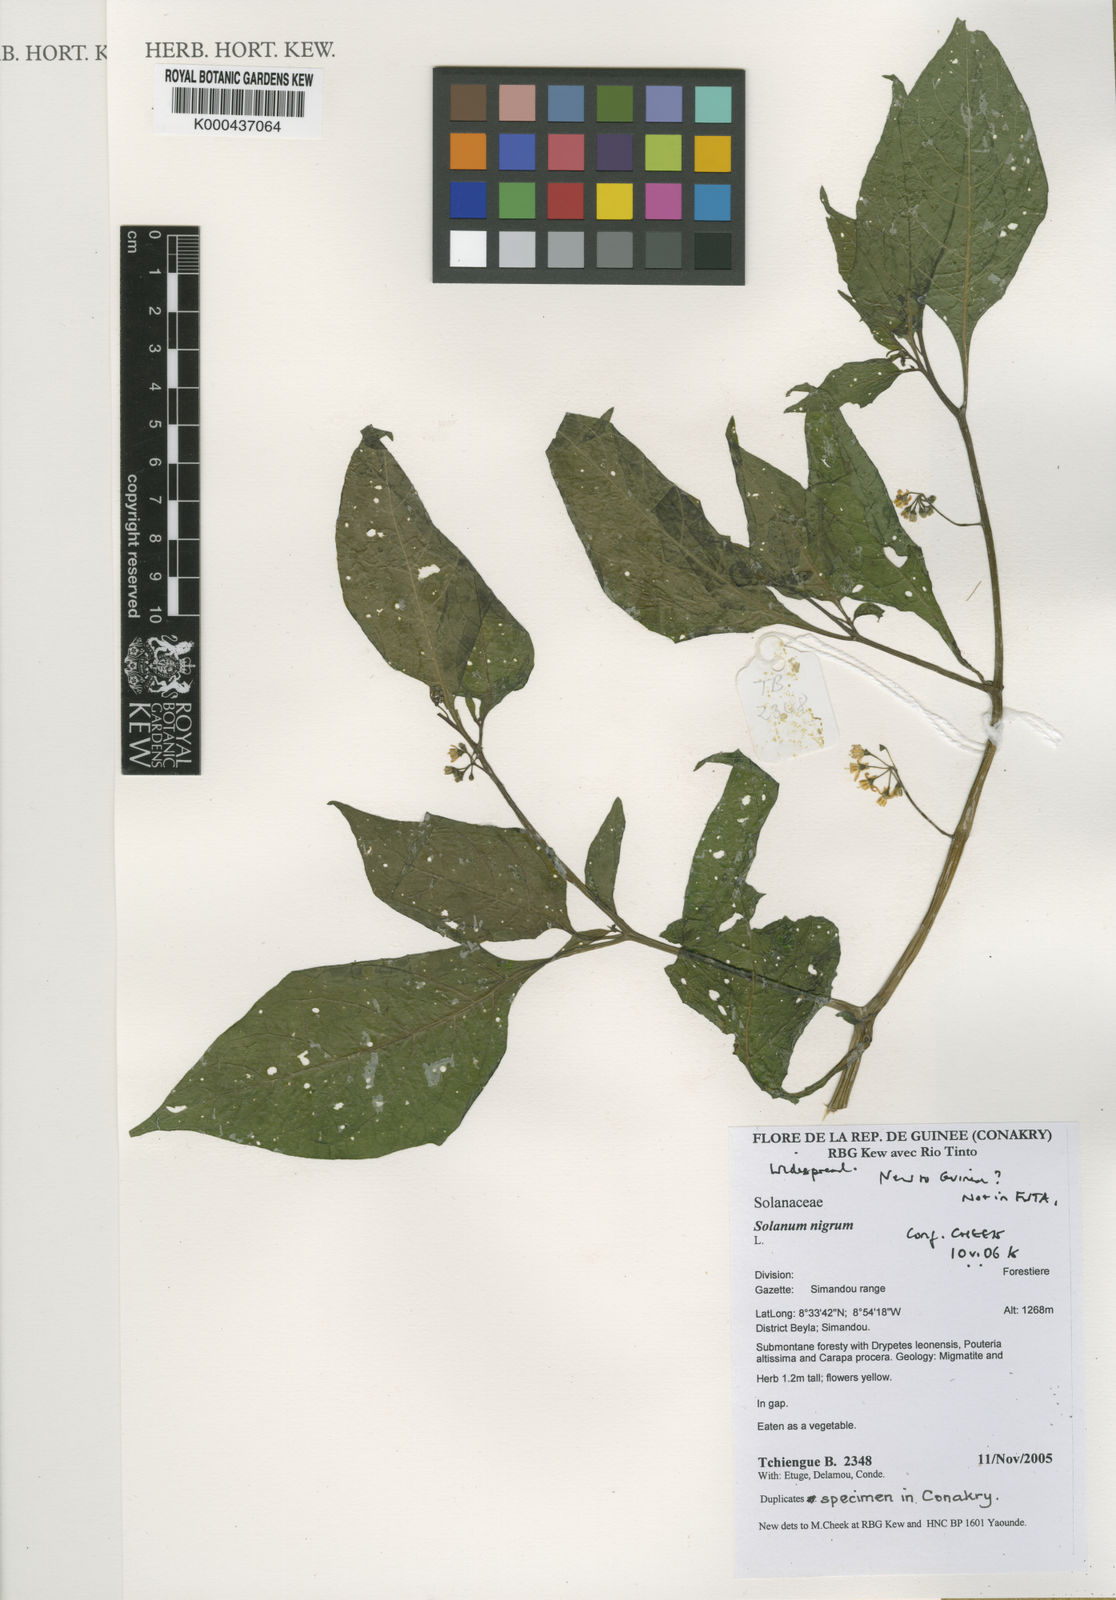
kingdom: Plantae
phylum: Tracheophyta
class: Magnoliopsida
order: Solanales
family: Solanaceae
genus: Solanum
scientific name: Solanum
